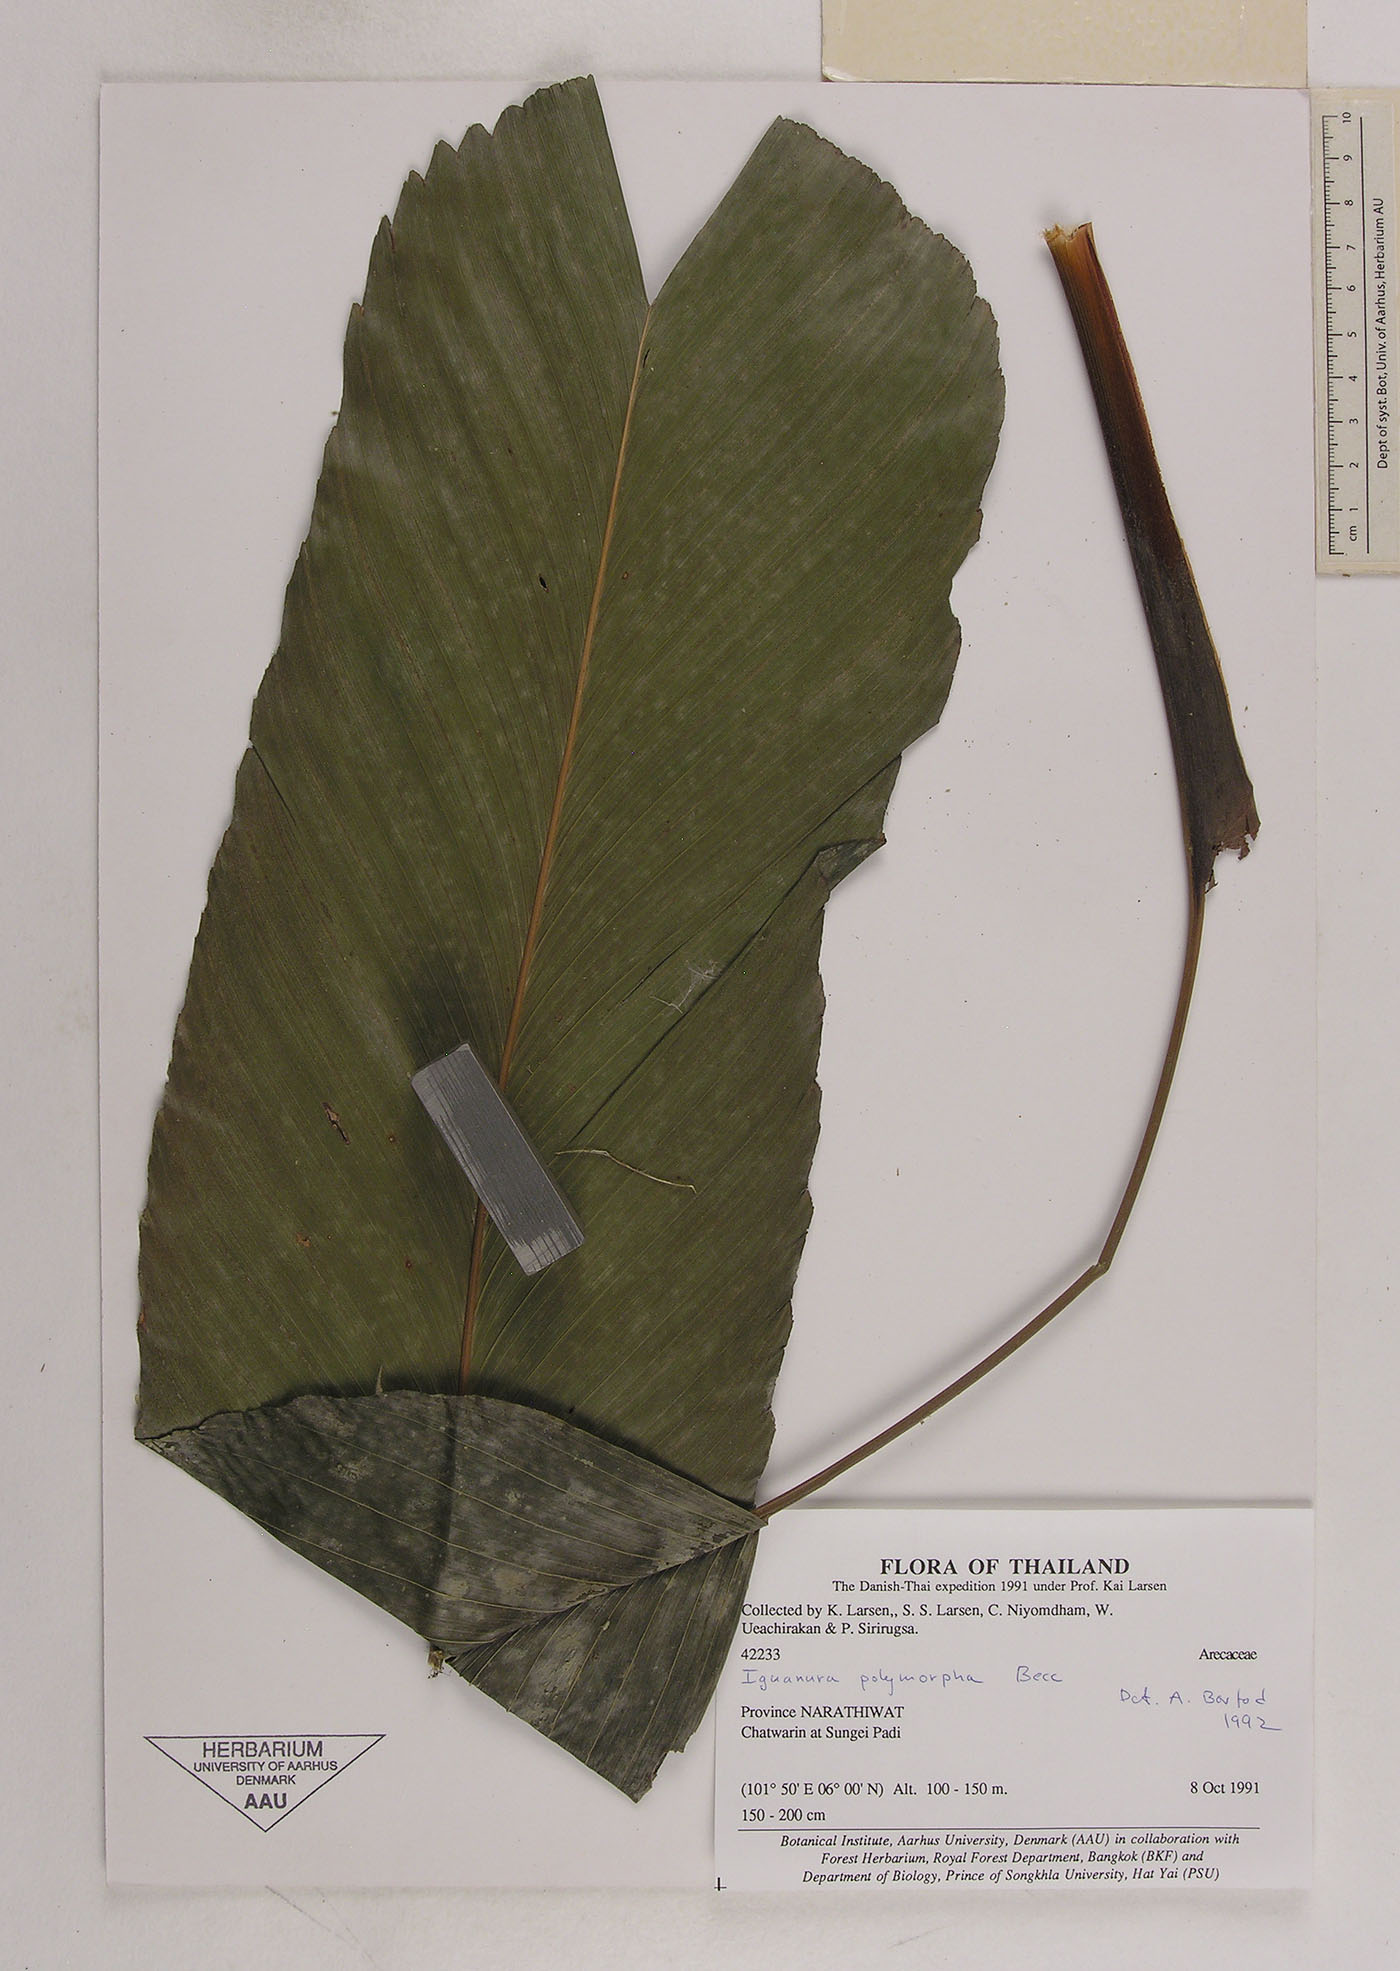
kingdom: Plantae
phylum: Tracheophyta
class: Liliopsida
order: Arecales
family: Arecaceae
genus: Iguanura
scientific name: Iguanura polymorpha
